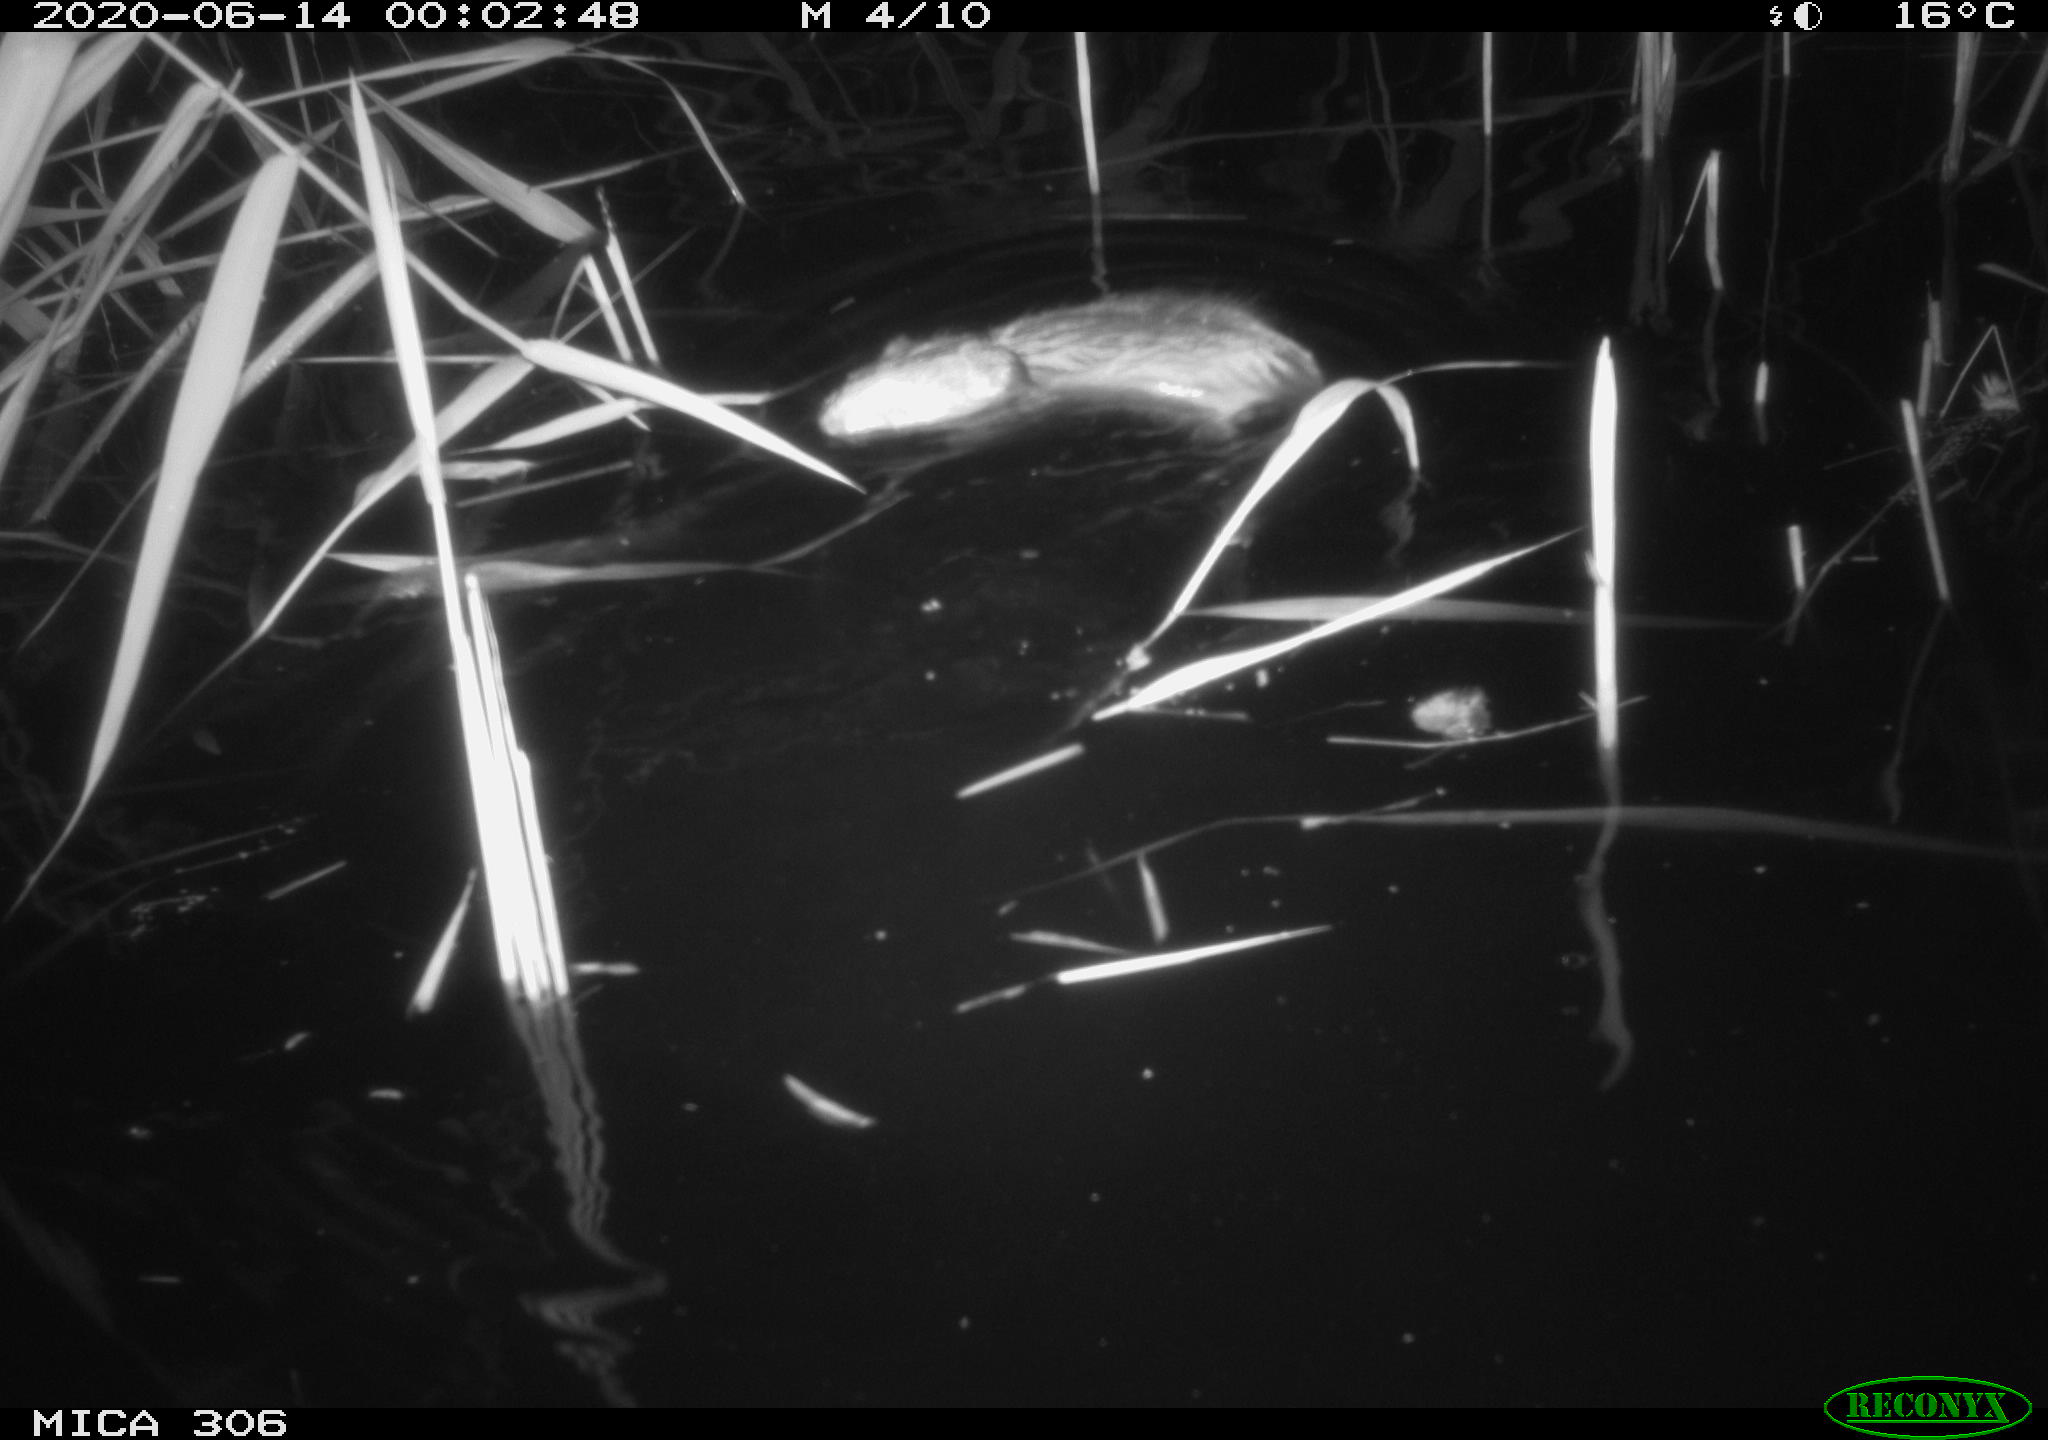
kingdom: Animalia
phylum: Chordata
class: Mammalia
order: Rodentia
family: Muridae
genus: Rattus
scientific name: Rattus norvegicus
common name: Brown rat
